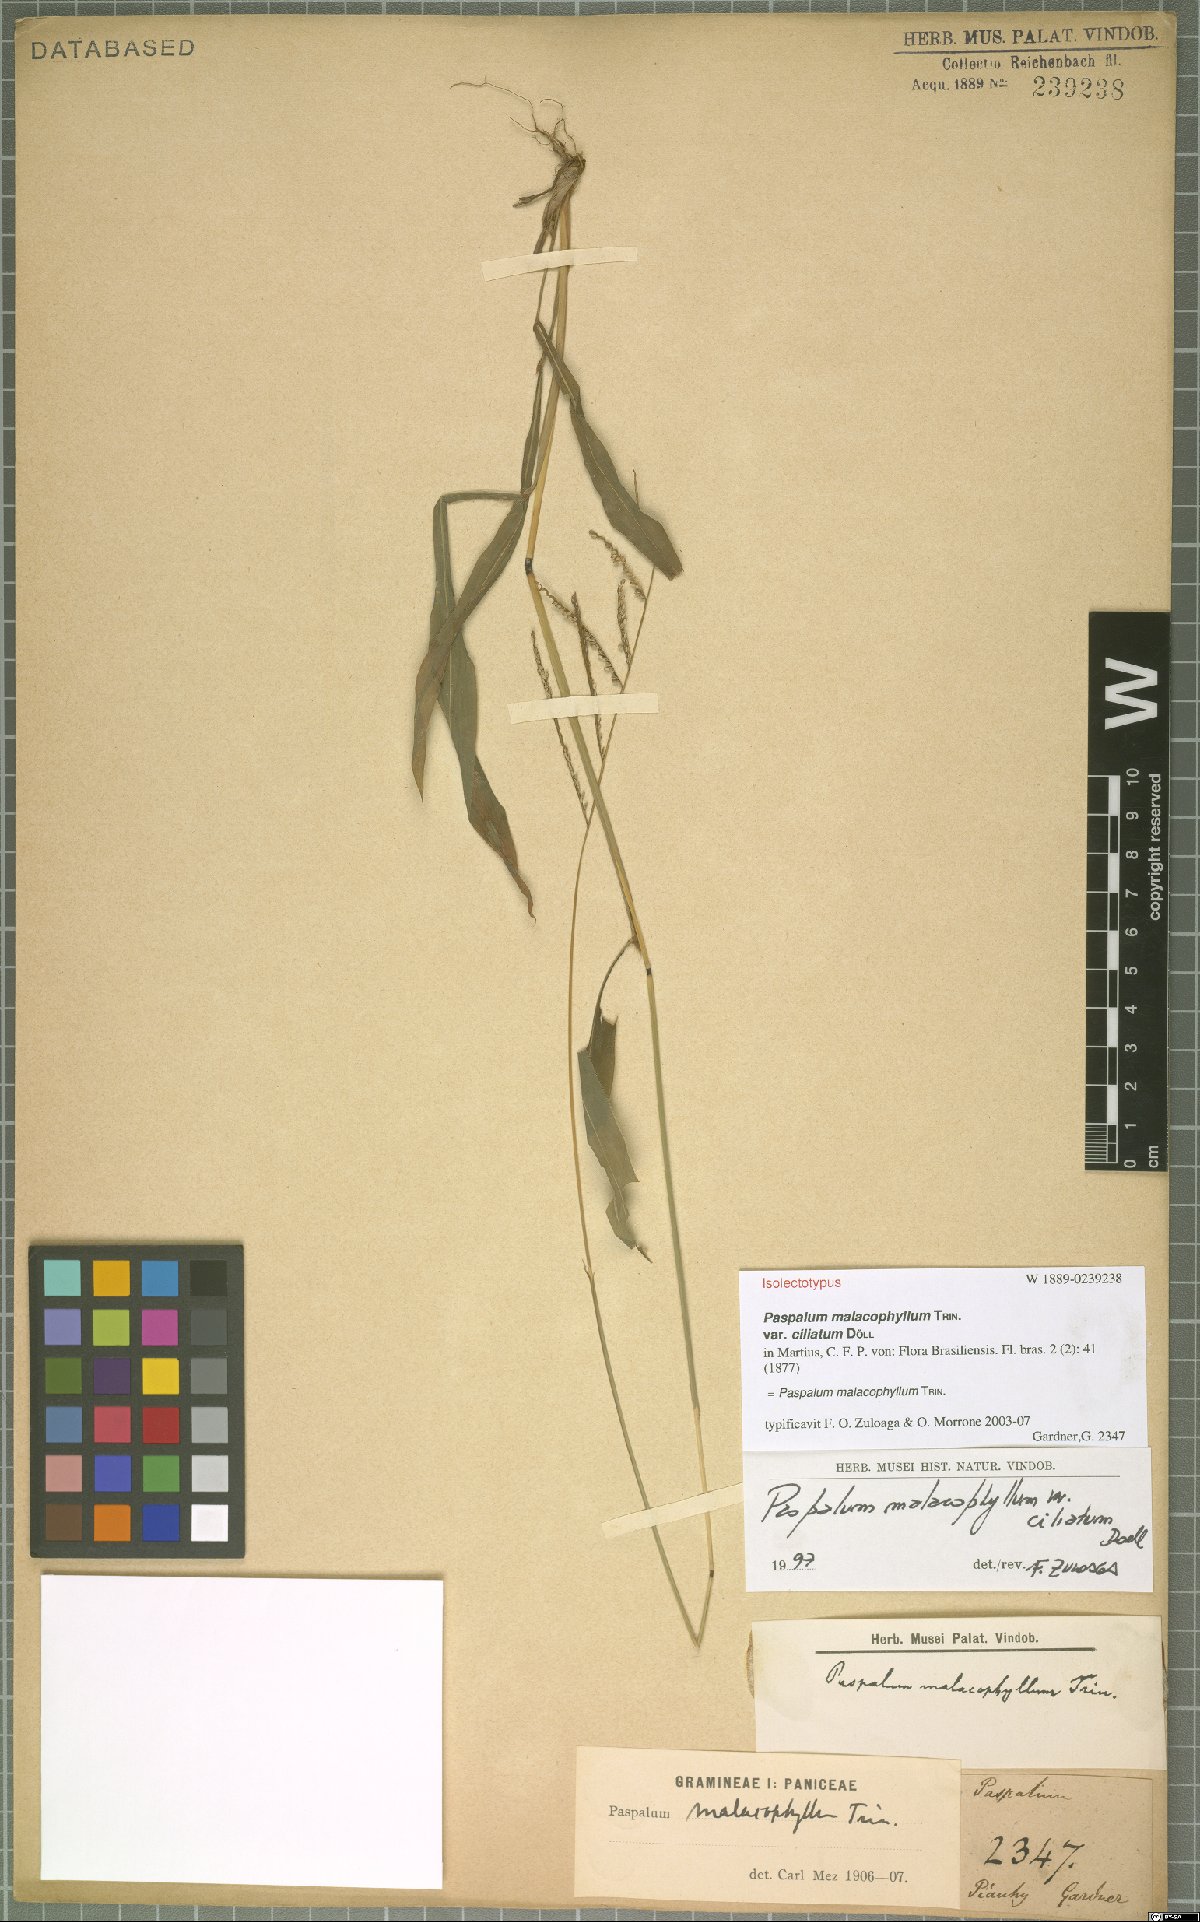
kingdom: Plantae
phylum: Tracheophyta
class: Liliopsida
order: Poales
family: Poaceae
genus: Paspalum
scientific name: Paspalum malacophyllum
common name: Ribbed paspalum
